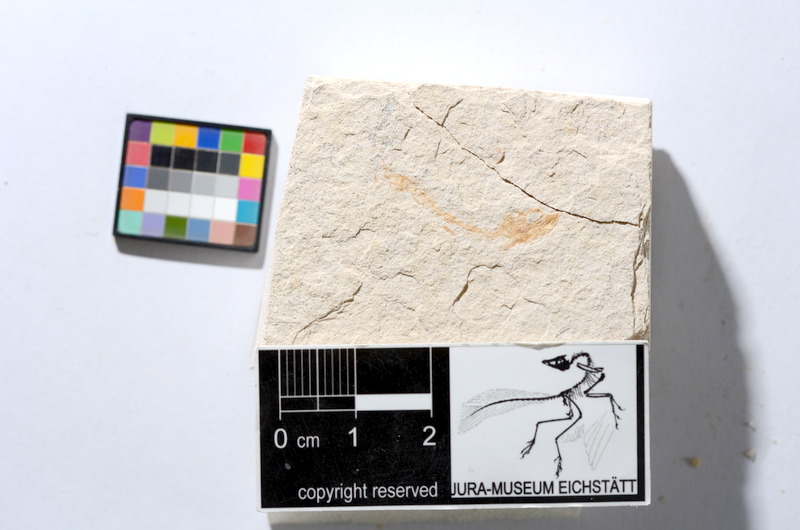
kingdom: Animalia
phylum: Chordata
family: Ascalaboidae
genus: Tharsis
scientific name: Tharsis dubius
